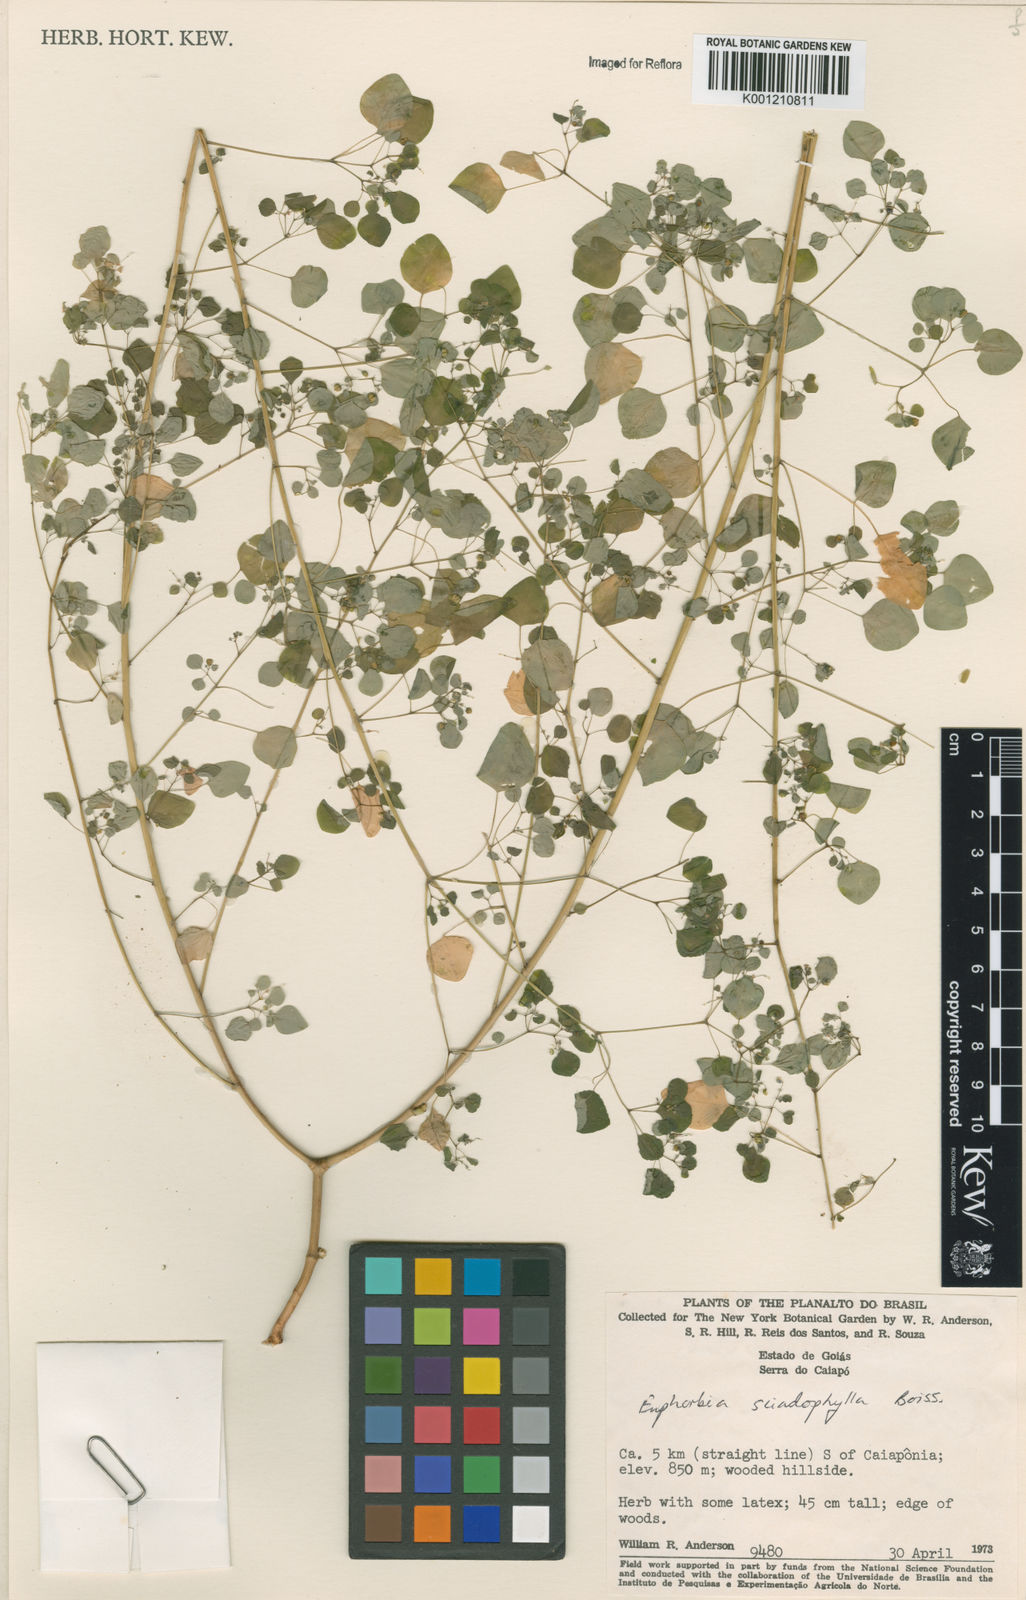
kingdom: Plantae
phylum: Tracheophyta
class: Magnoliopsida
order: Malpighiales
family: Euphorbiaceae
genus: Euphorbia
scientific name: Euphorbia sciadophila
